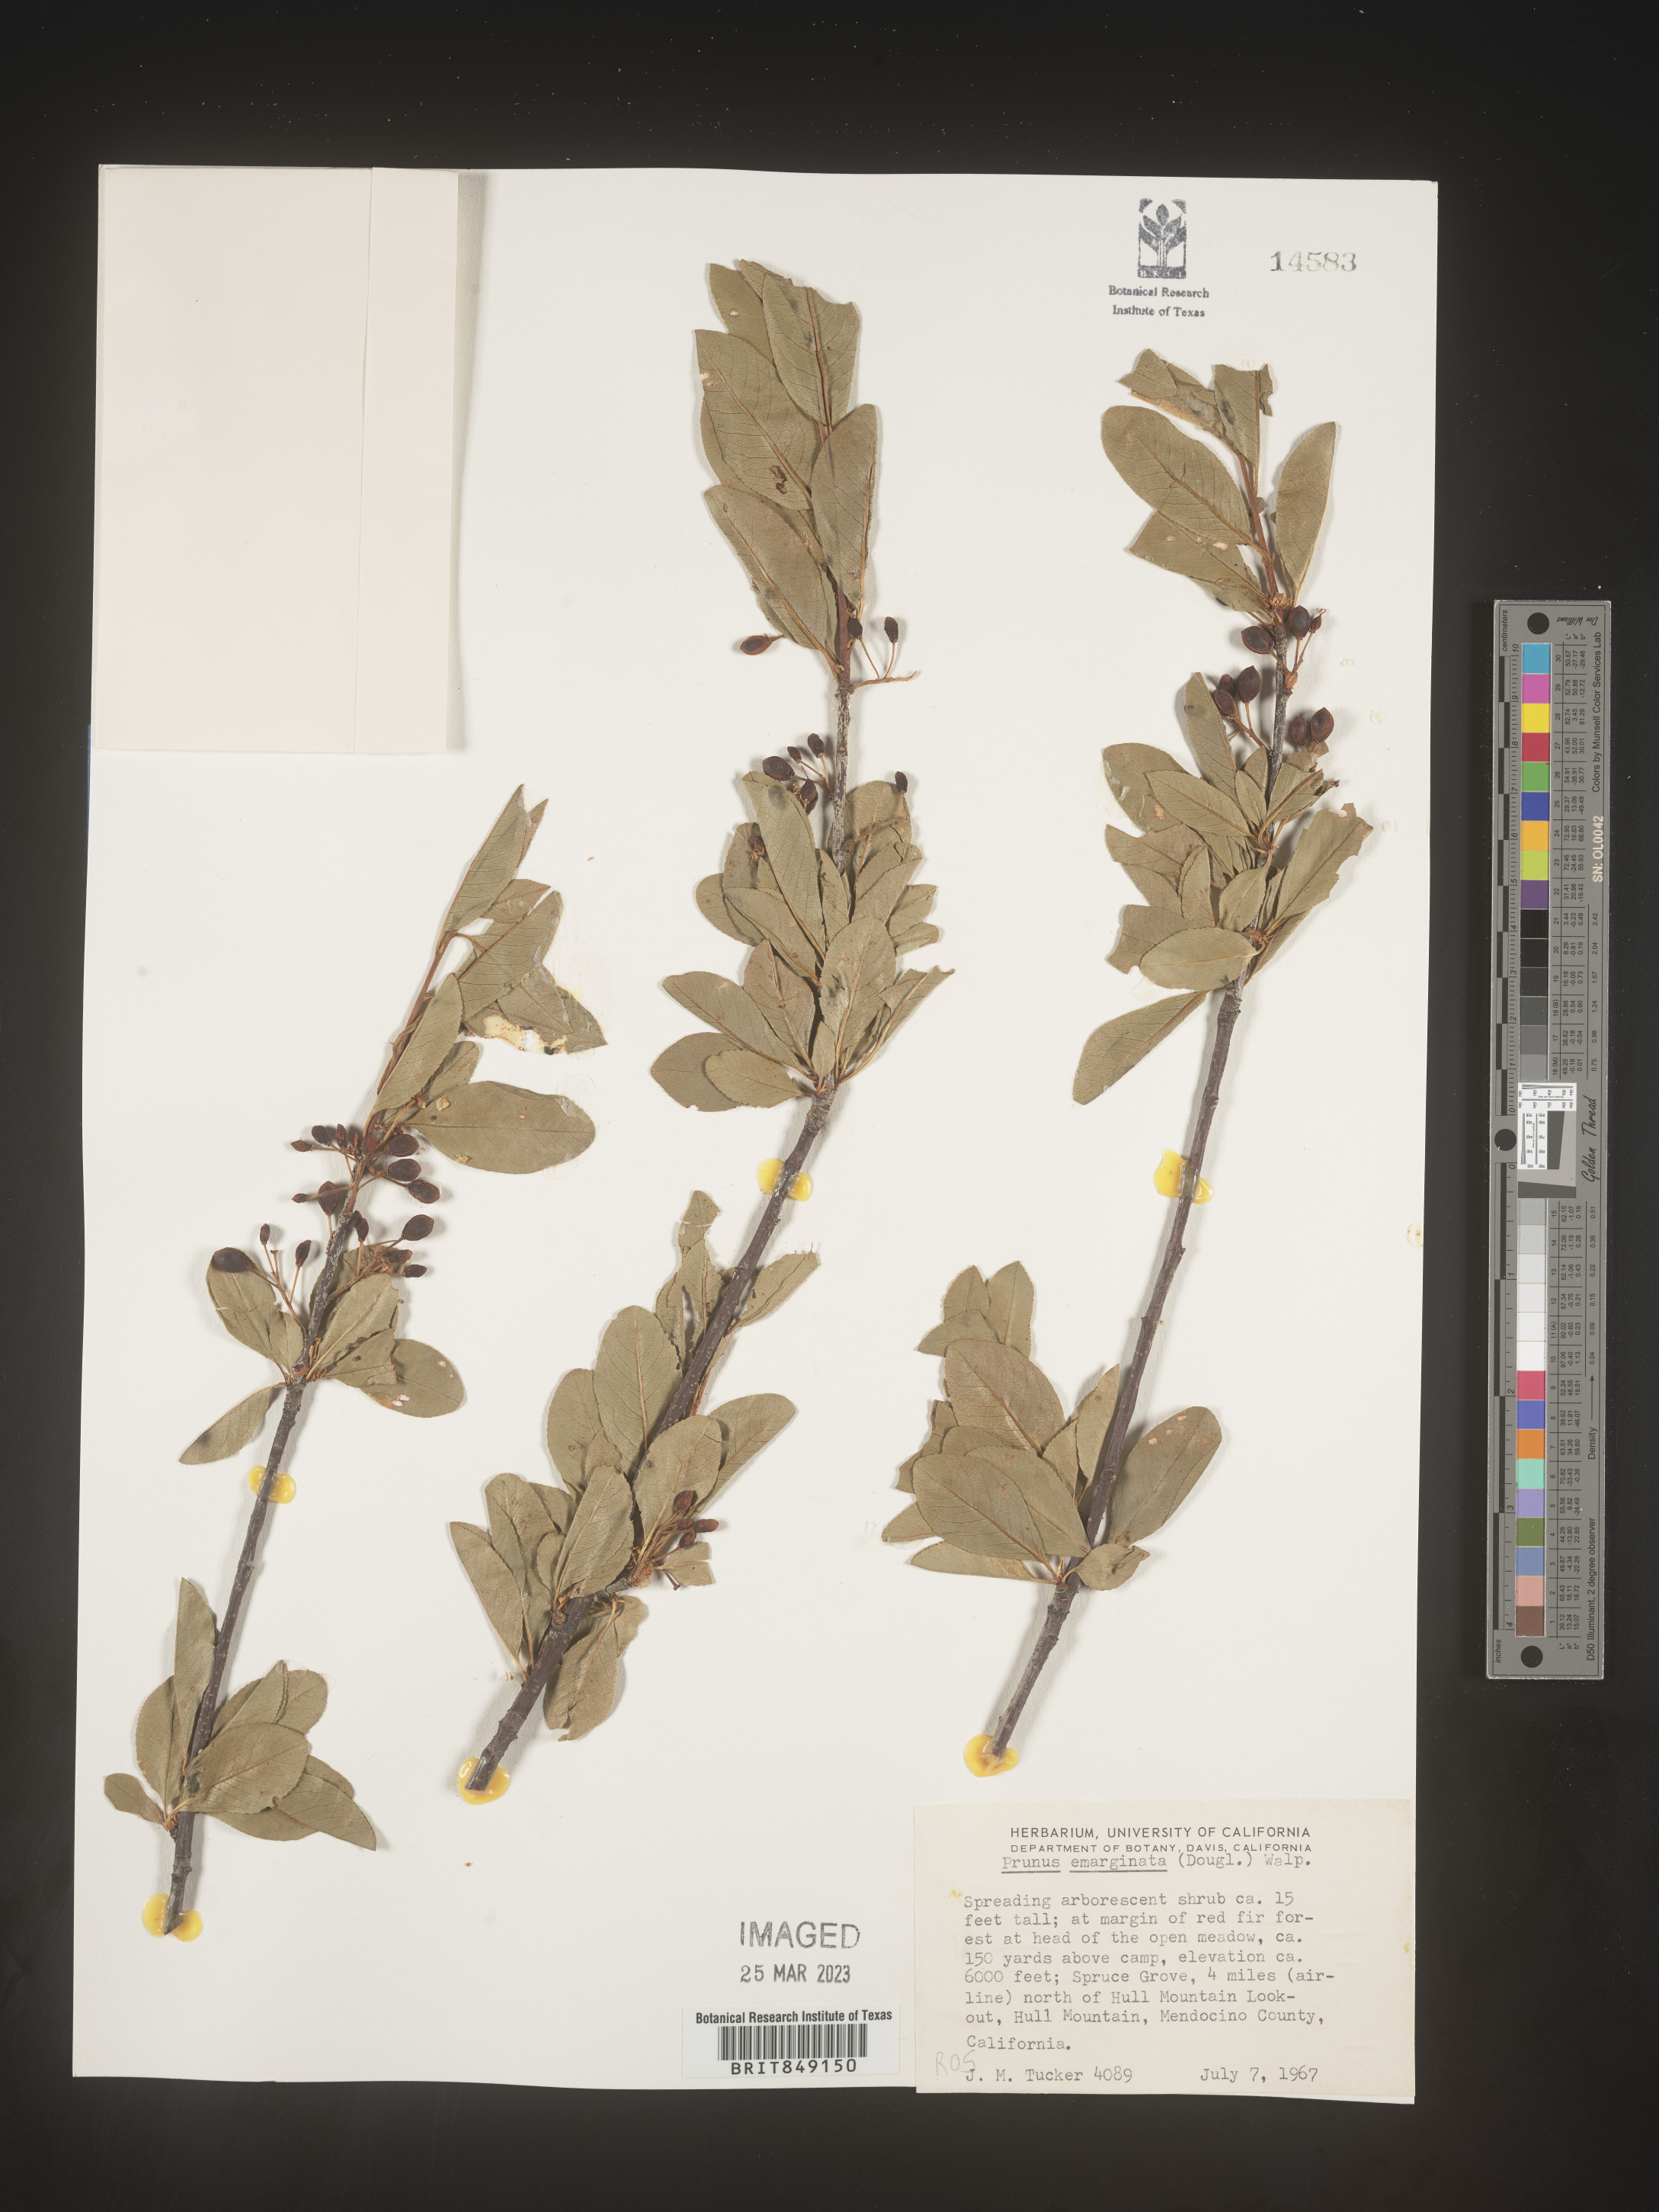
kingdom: Plantae
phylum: Tracheophyta
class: Magnoliopsida
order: Rosales
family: Rosaceae
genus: Prunus
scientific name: Prunus emarginata
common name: Bitter cherry
